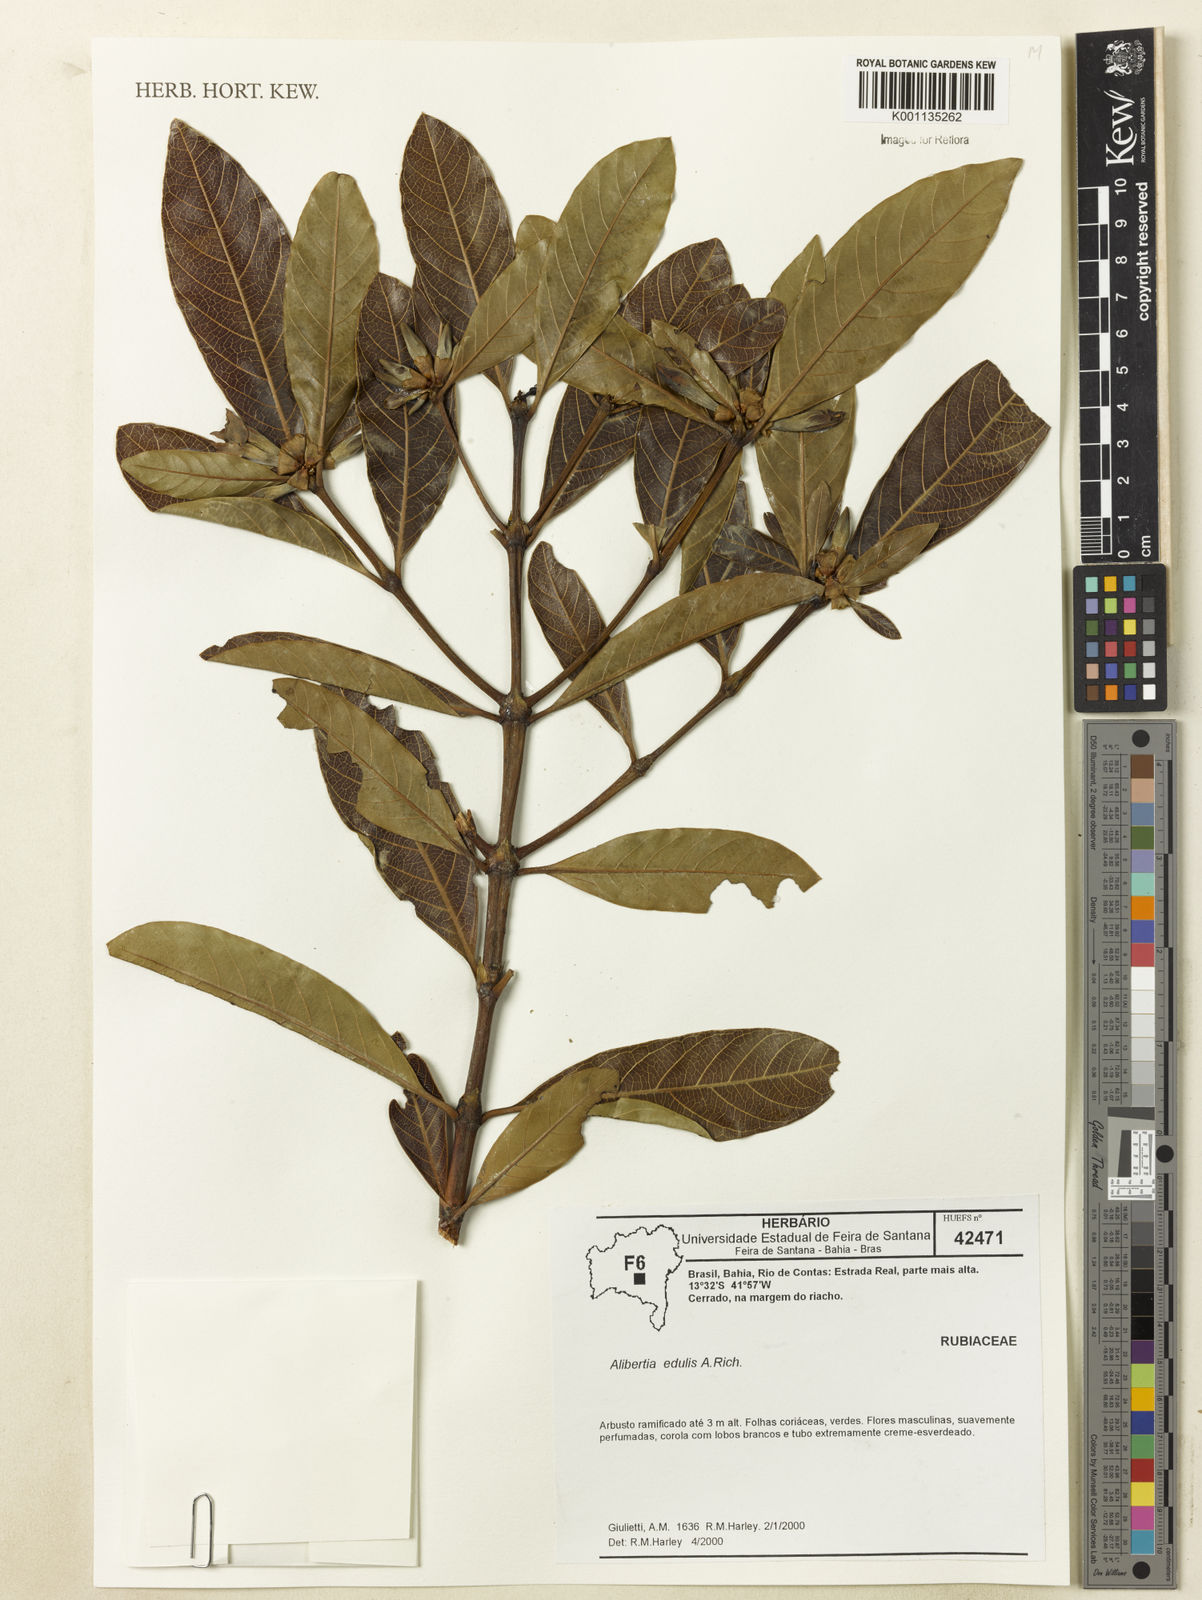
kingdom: Plantae
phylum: Tracheophyta
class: Magnoliopsida
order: Gentianales
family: Rubiaceae
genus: Alibertia
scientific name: Alibertia edulis
